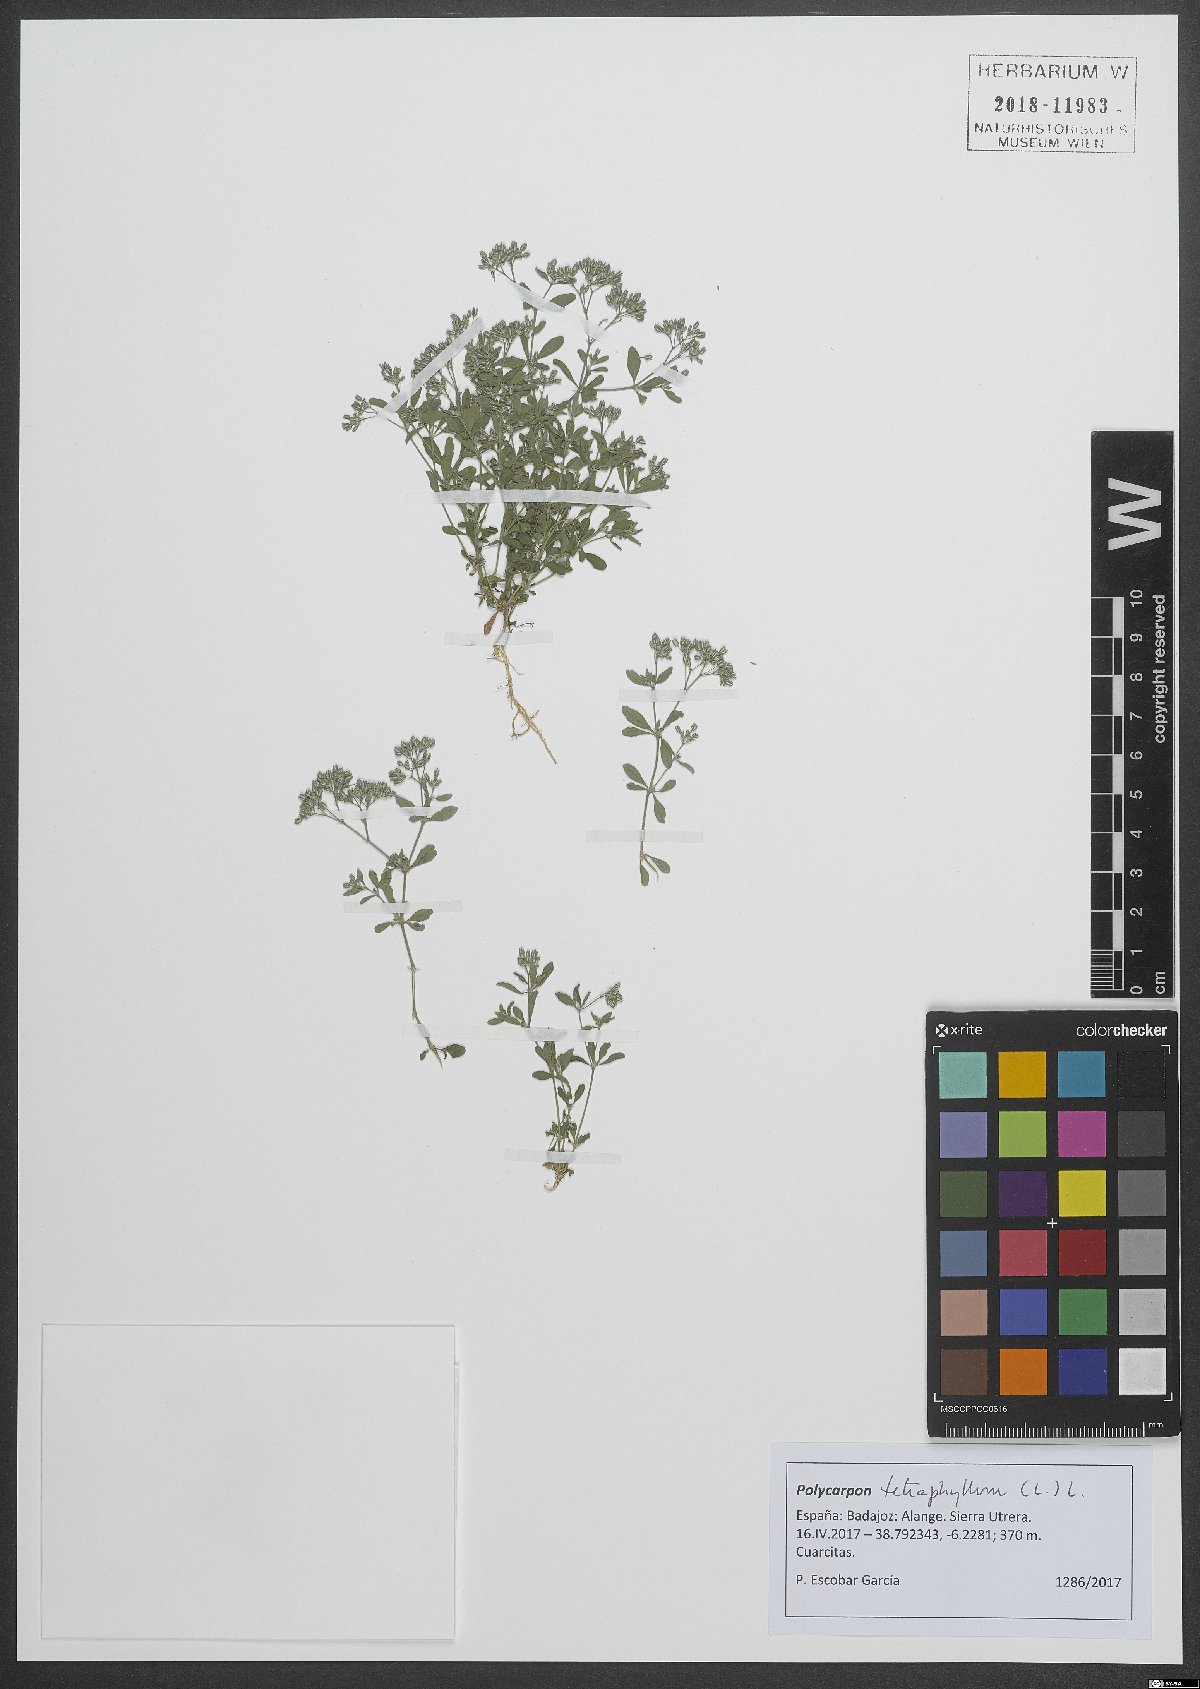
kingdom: Plantae
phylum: Tracheophyta
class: Magnoliopsida
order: Caryophyllales
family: Caryophyllaceae
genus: Polycarpon
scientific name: Polycarpon tetraphyllum
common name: Four-leaved all-seed
